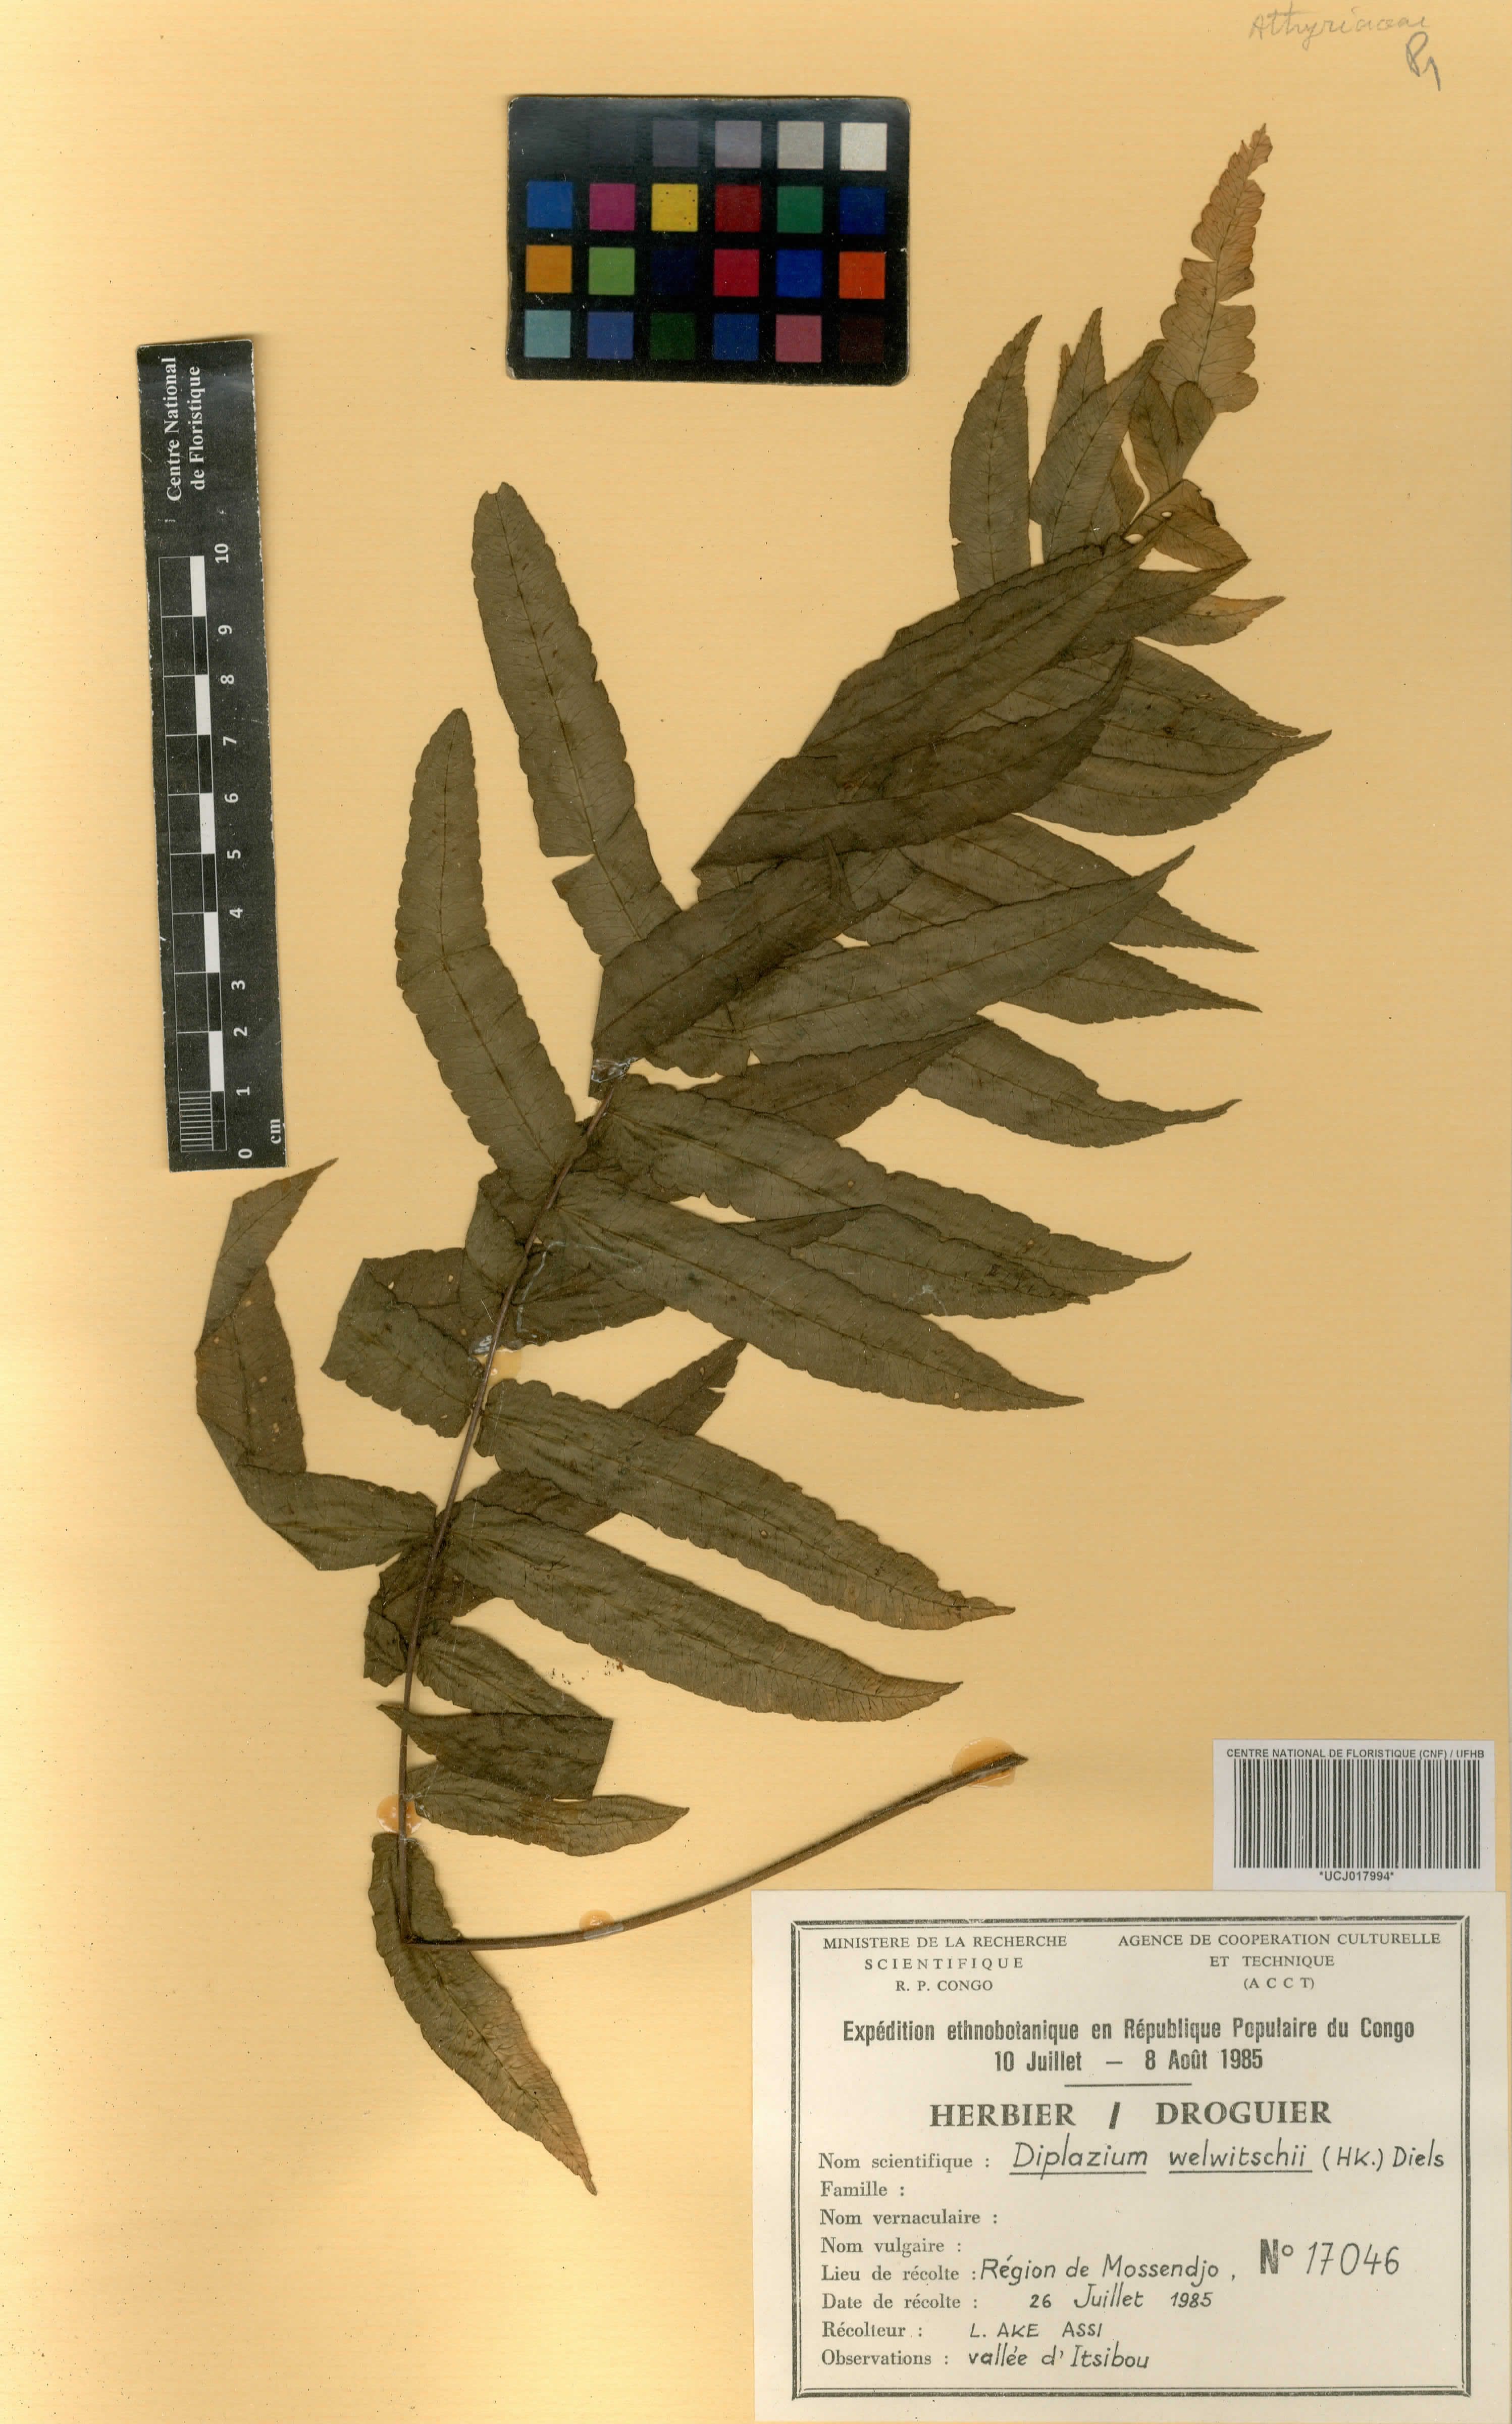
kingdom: Plantae
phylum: Tracheophyta
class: Polypodiopsida
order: Polypodiales
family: Athyriaceae
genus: Diplazium
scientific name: Diplazium welwitschii
